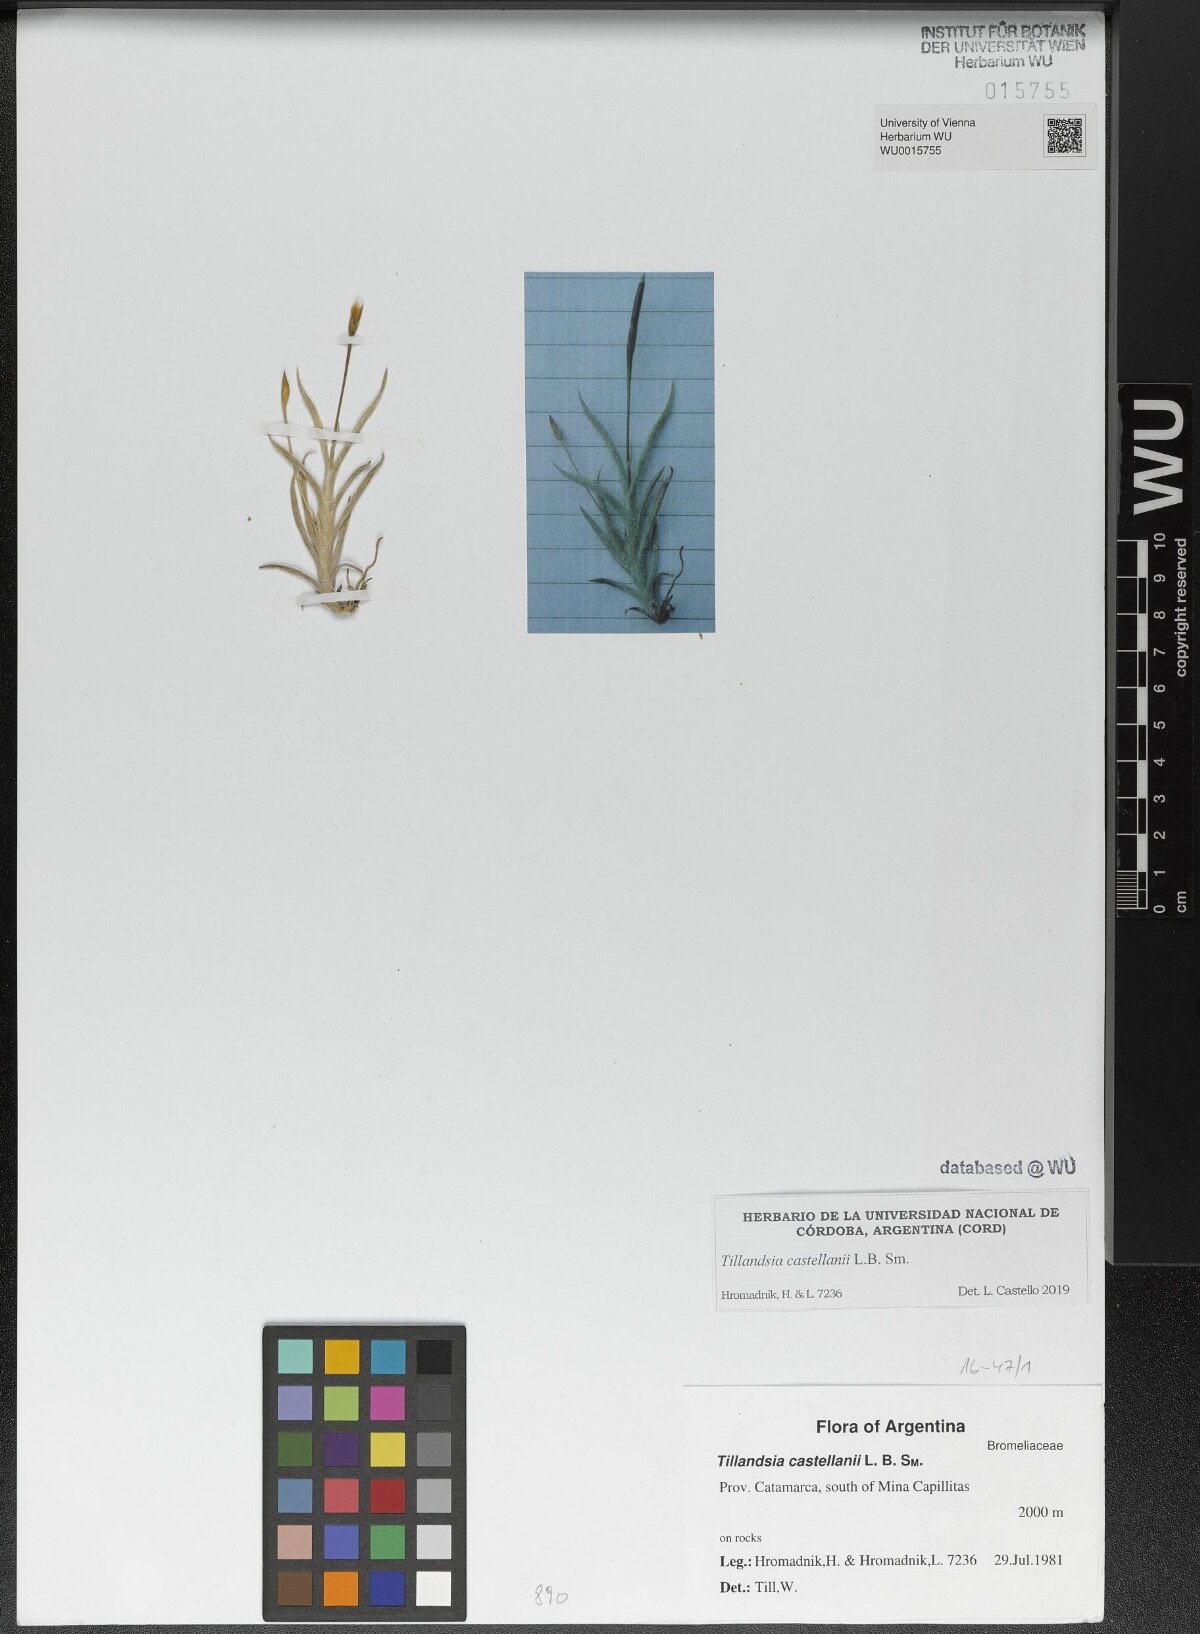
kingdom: Plantae
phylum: Tracheophyta
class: Liliopsida
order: Poales
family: Bromeliaceae
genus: Tillandsia
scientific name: Tillandsia castellanii
